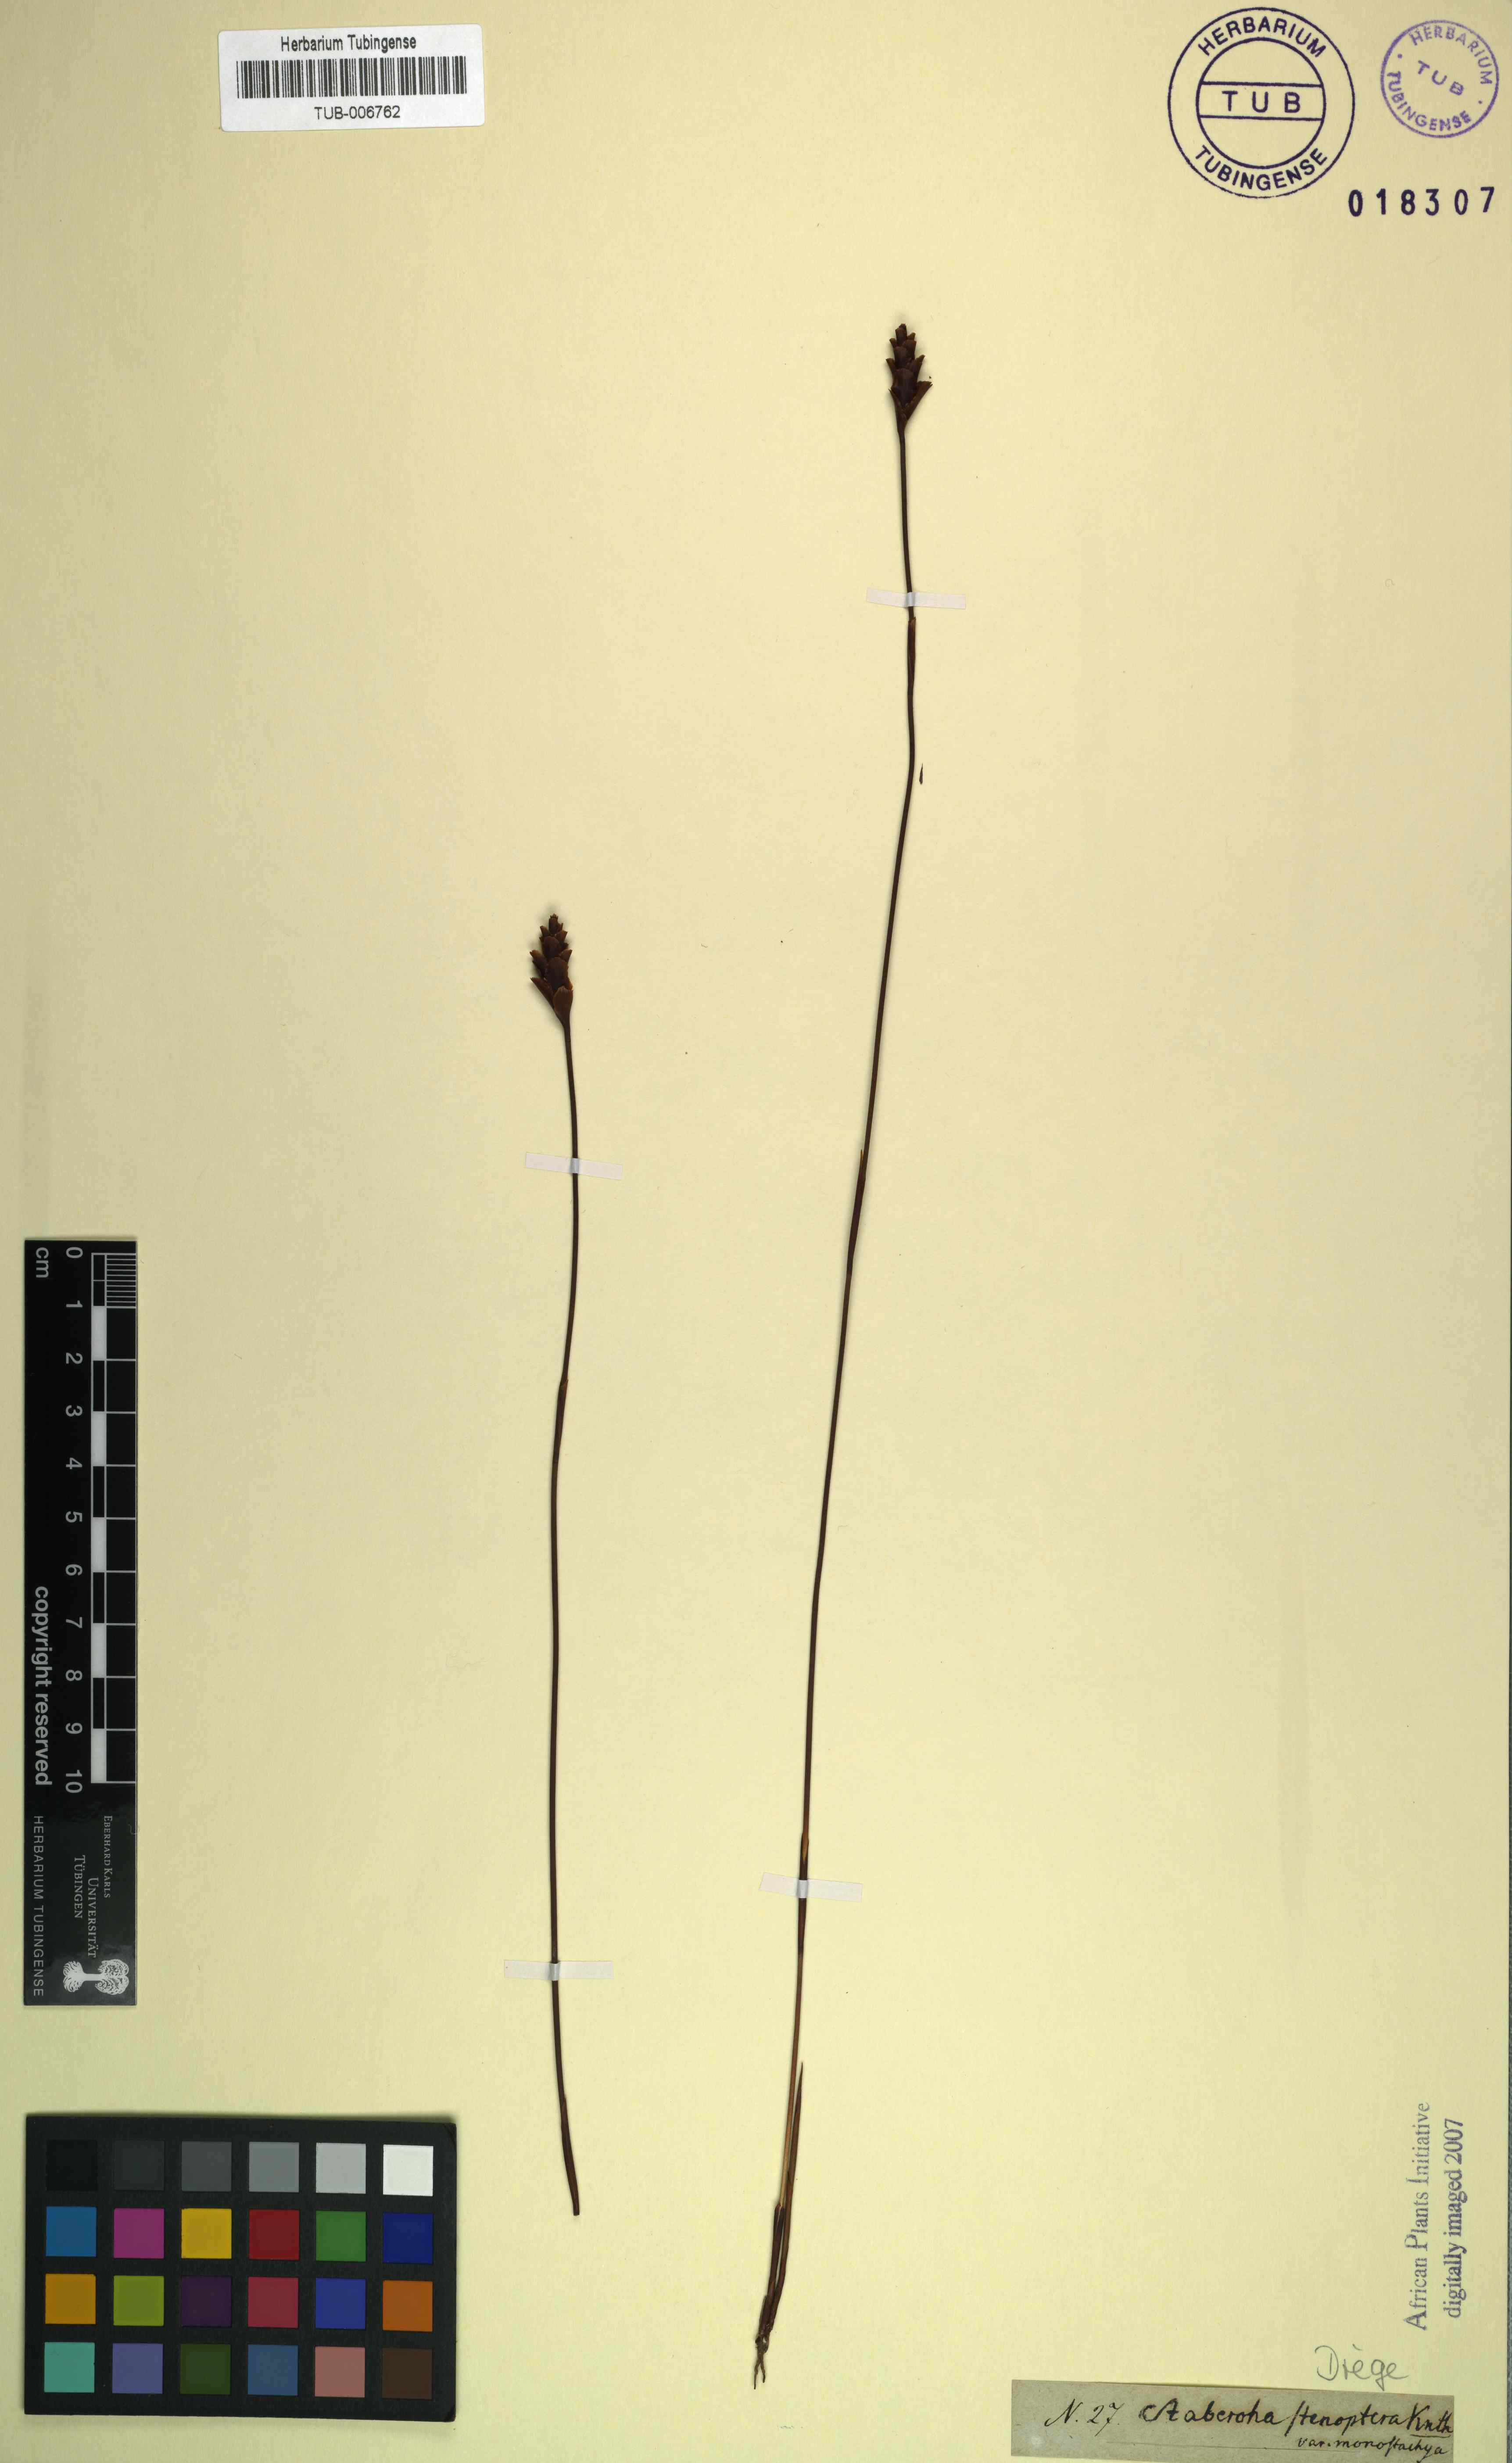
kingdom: Plantae
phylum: Tracheophyta
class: Liliopsida
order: Poales
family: Restionaceae
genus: Staberoha
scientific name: Staberoha distachyos
